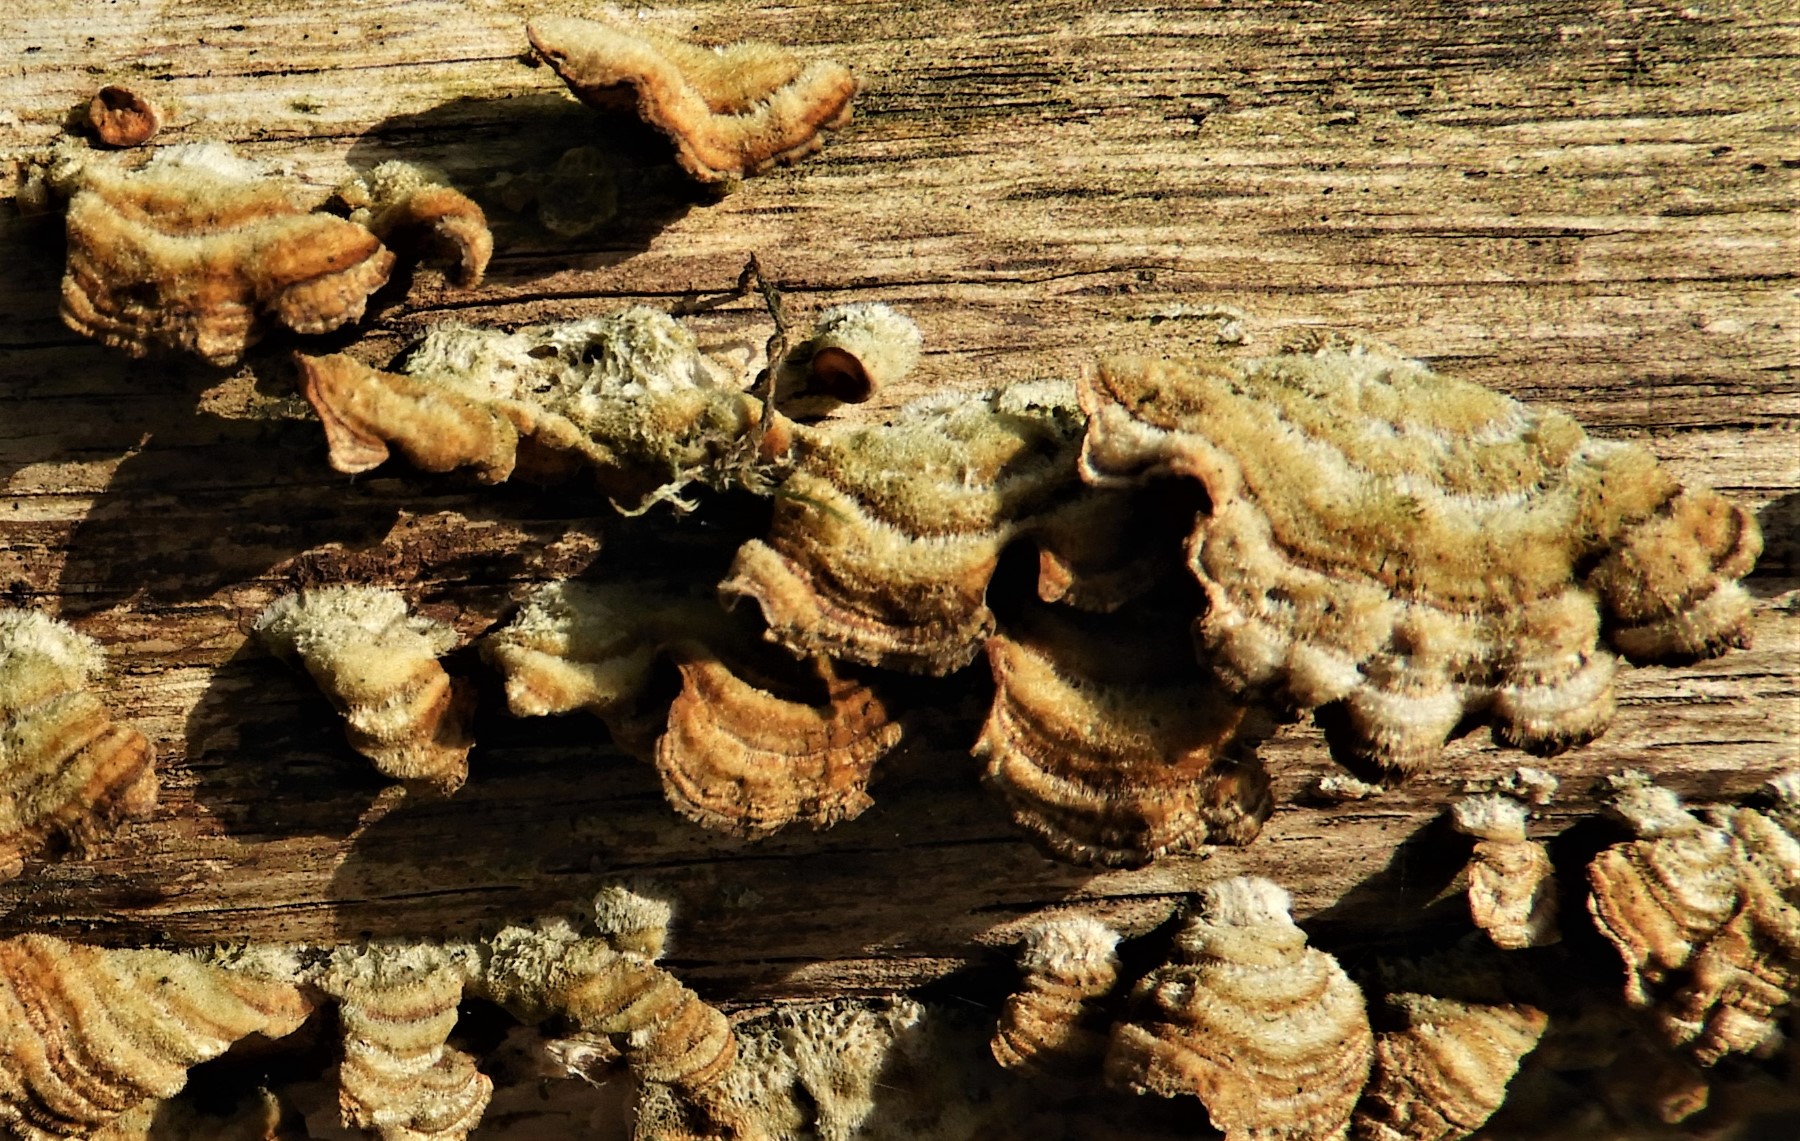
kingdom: Fungi
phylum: Basidiomycota
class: Agaricomycetes
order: Russulales
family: Stereaceae
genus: Stereum
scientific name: Stereum hirsutum
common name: håret lædersvamp
